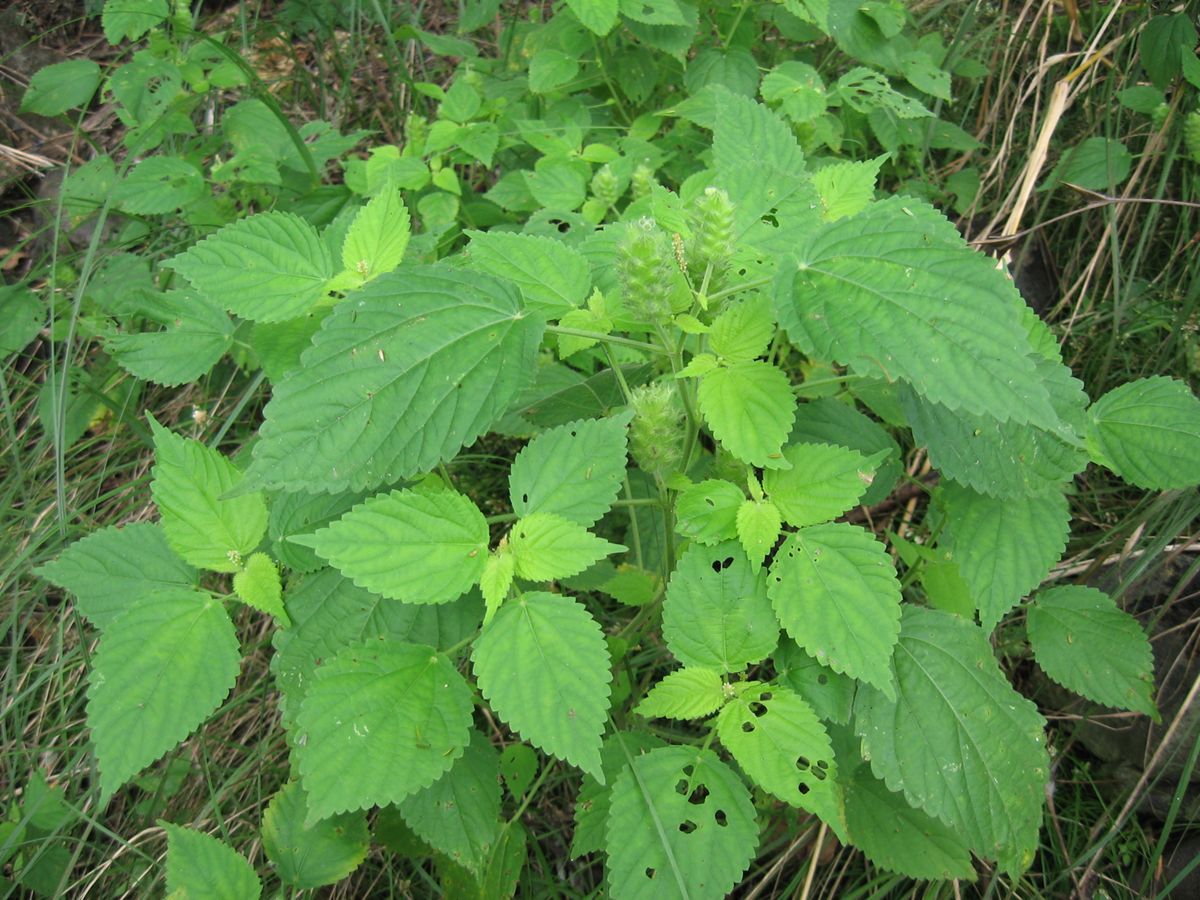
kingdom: Plantae
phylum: Tracheophyta
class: Magnoliopsida
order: Malpighiales
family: Euphorbiaceae
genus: Acalypha
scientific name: Acalypha pseudalopecuroides
